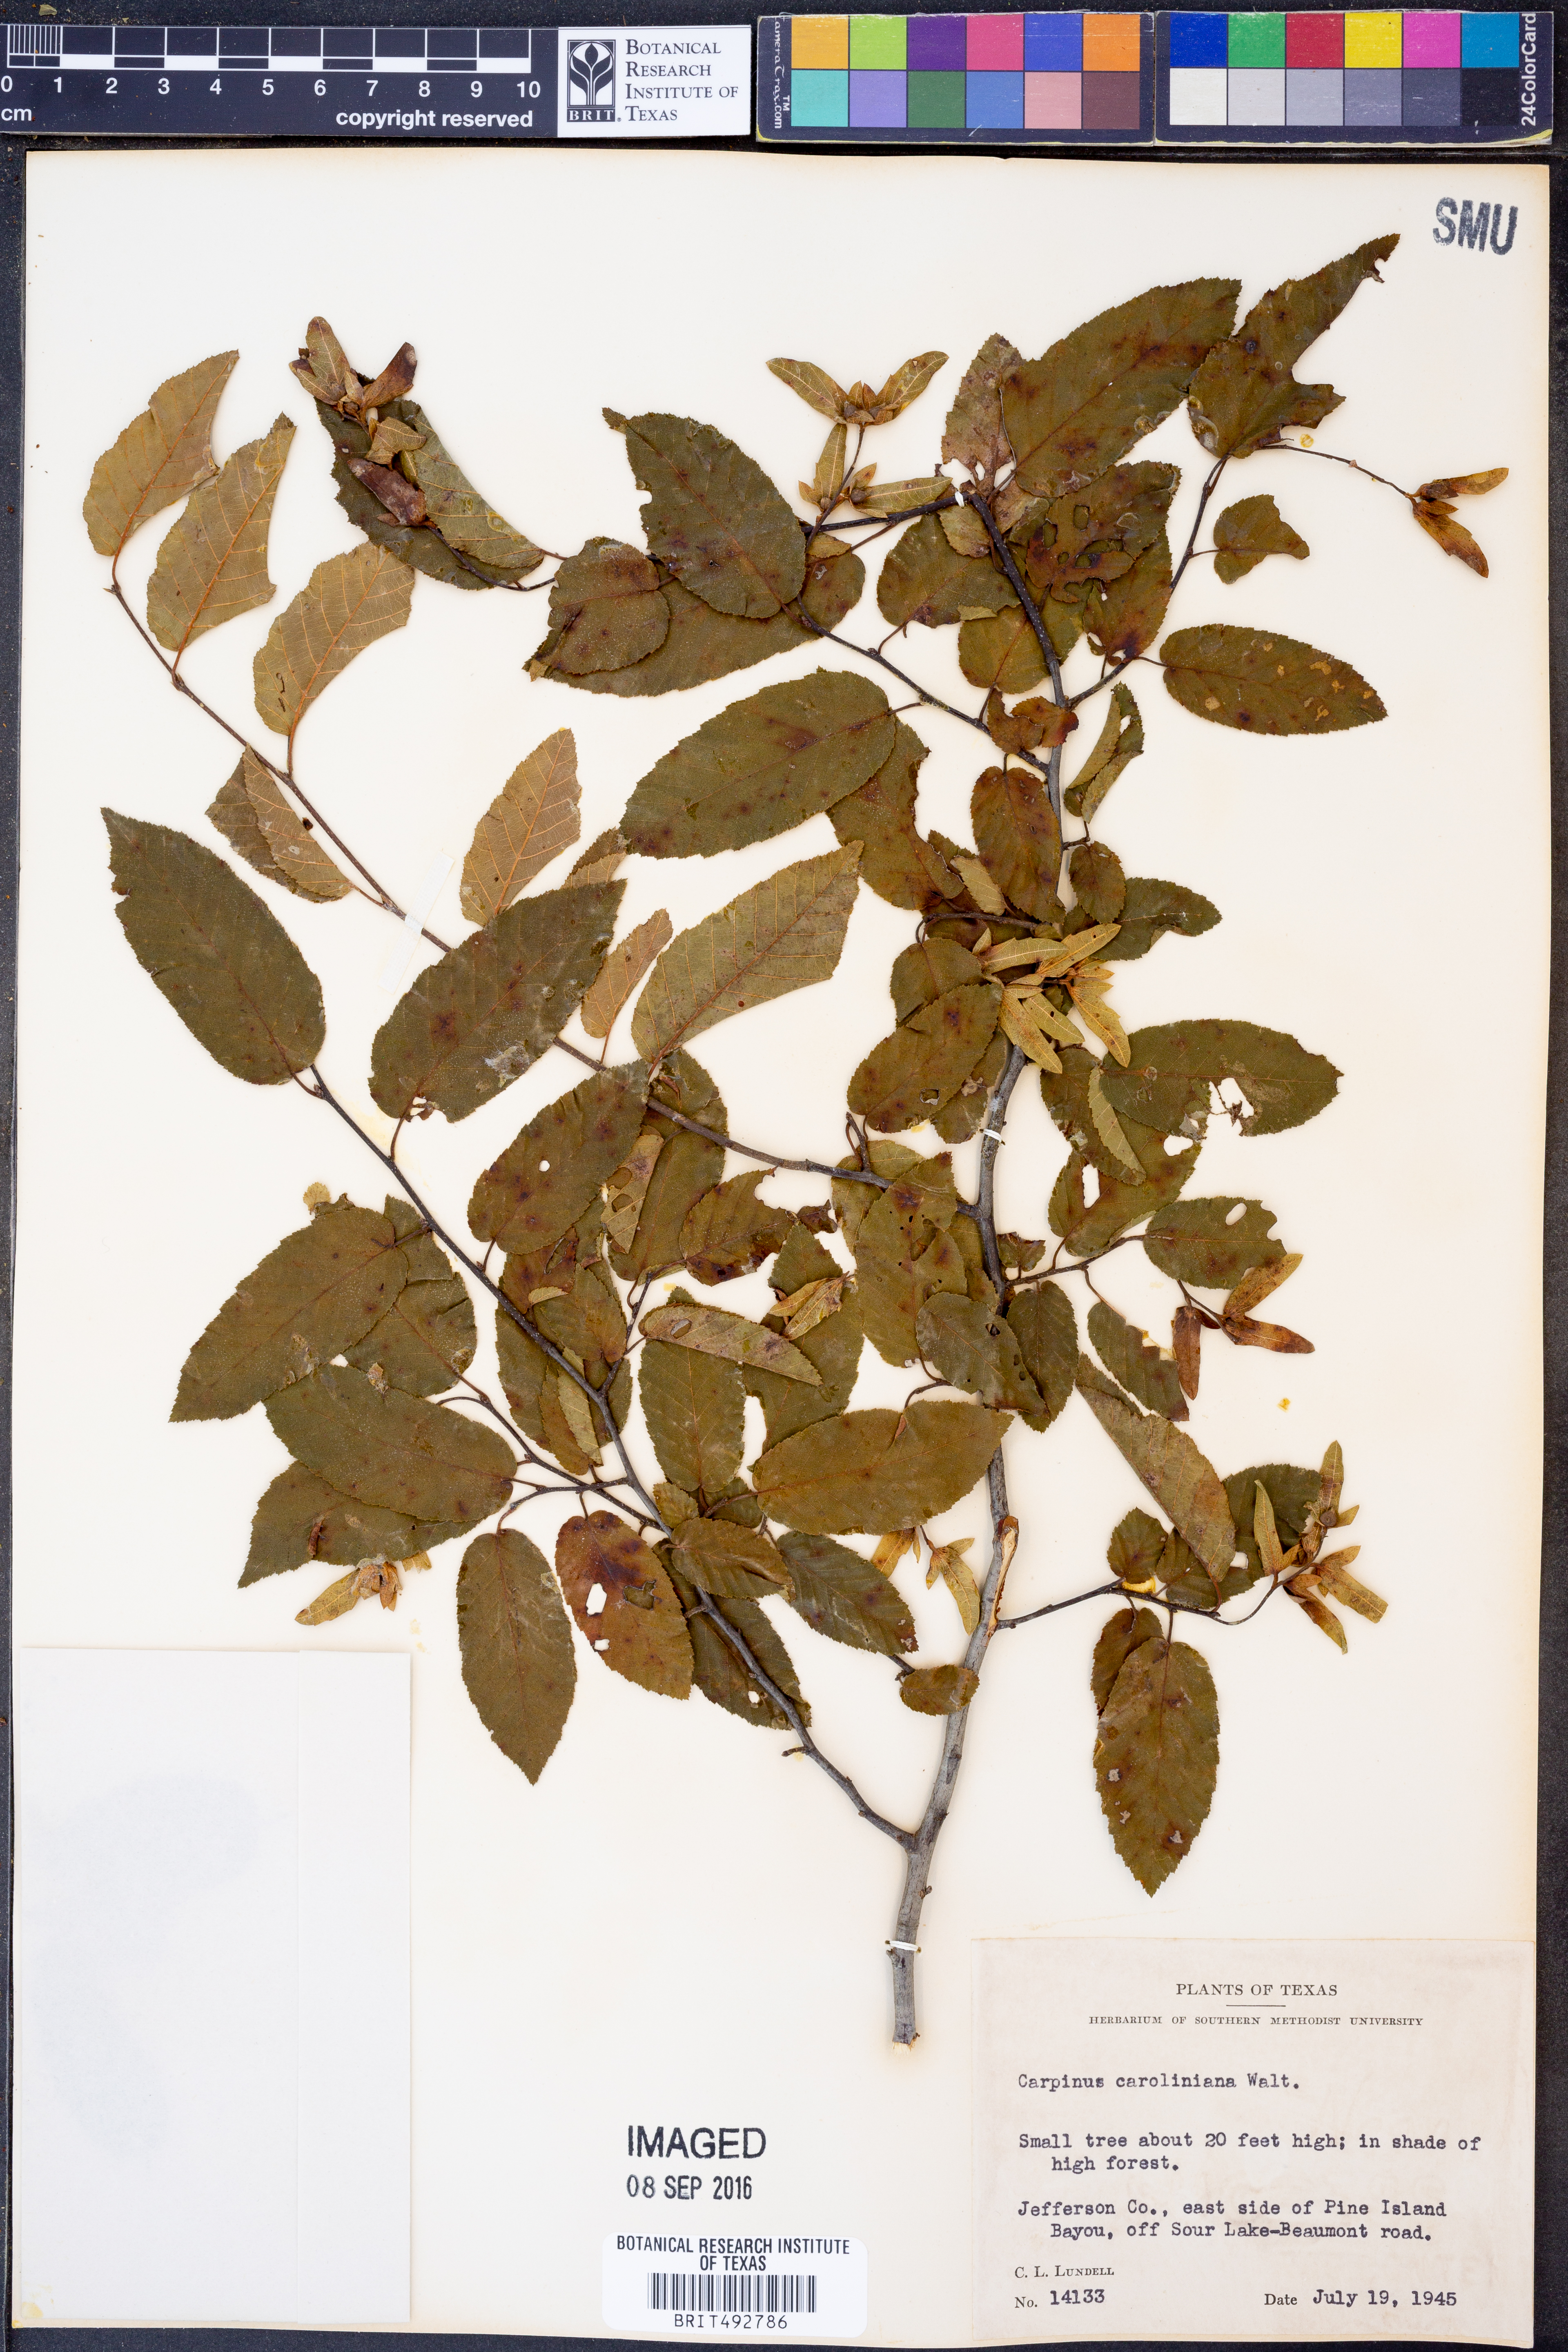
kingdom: Plantae
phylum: Tracheophyta
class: Magnoliopsida
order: Fagales
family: Betulaceae
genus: Carpinus
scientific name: Carpinus caroliniana
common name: American hornbeam
